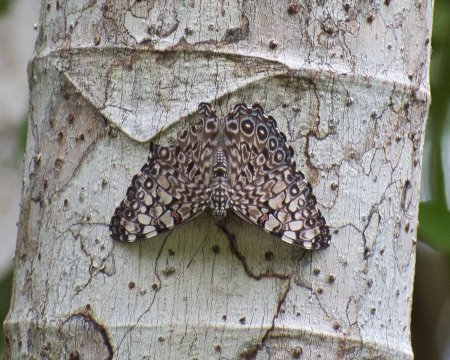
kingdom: Animalia
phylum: Arthropoda
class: Insecta
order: Lepidoptera
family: Nymphalidae
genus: Hamadryas
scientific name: Hamadryas feronia
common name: Variable Cracker
